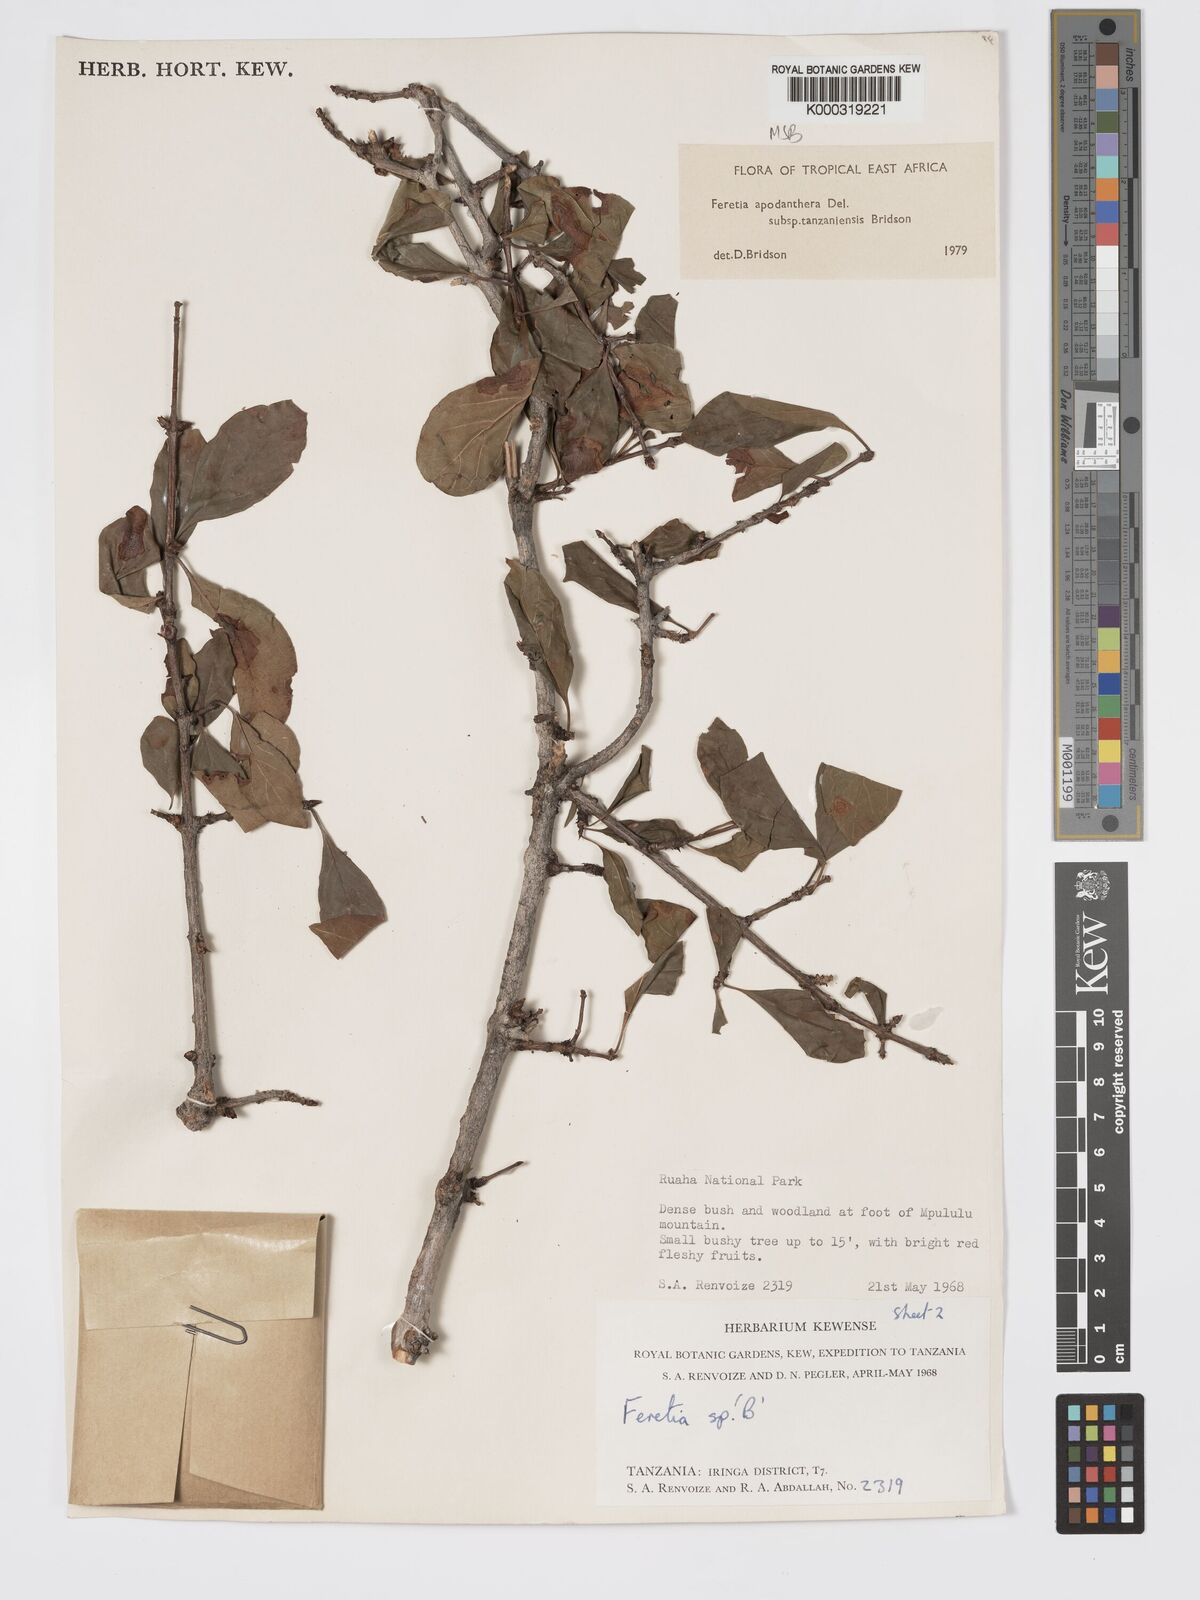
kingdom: Plantae
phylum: Tracheophyta
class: Magnoliopsida
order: Gentianales
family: Rubiaceae
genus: Feretia
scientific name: Feretia apodanthera
